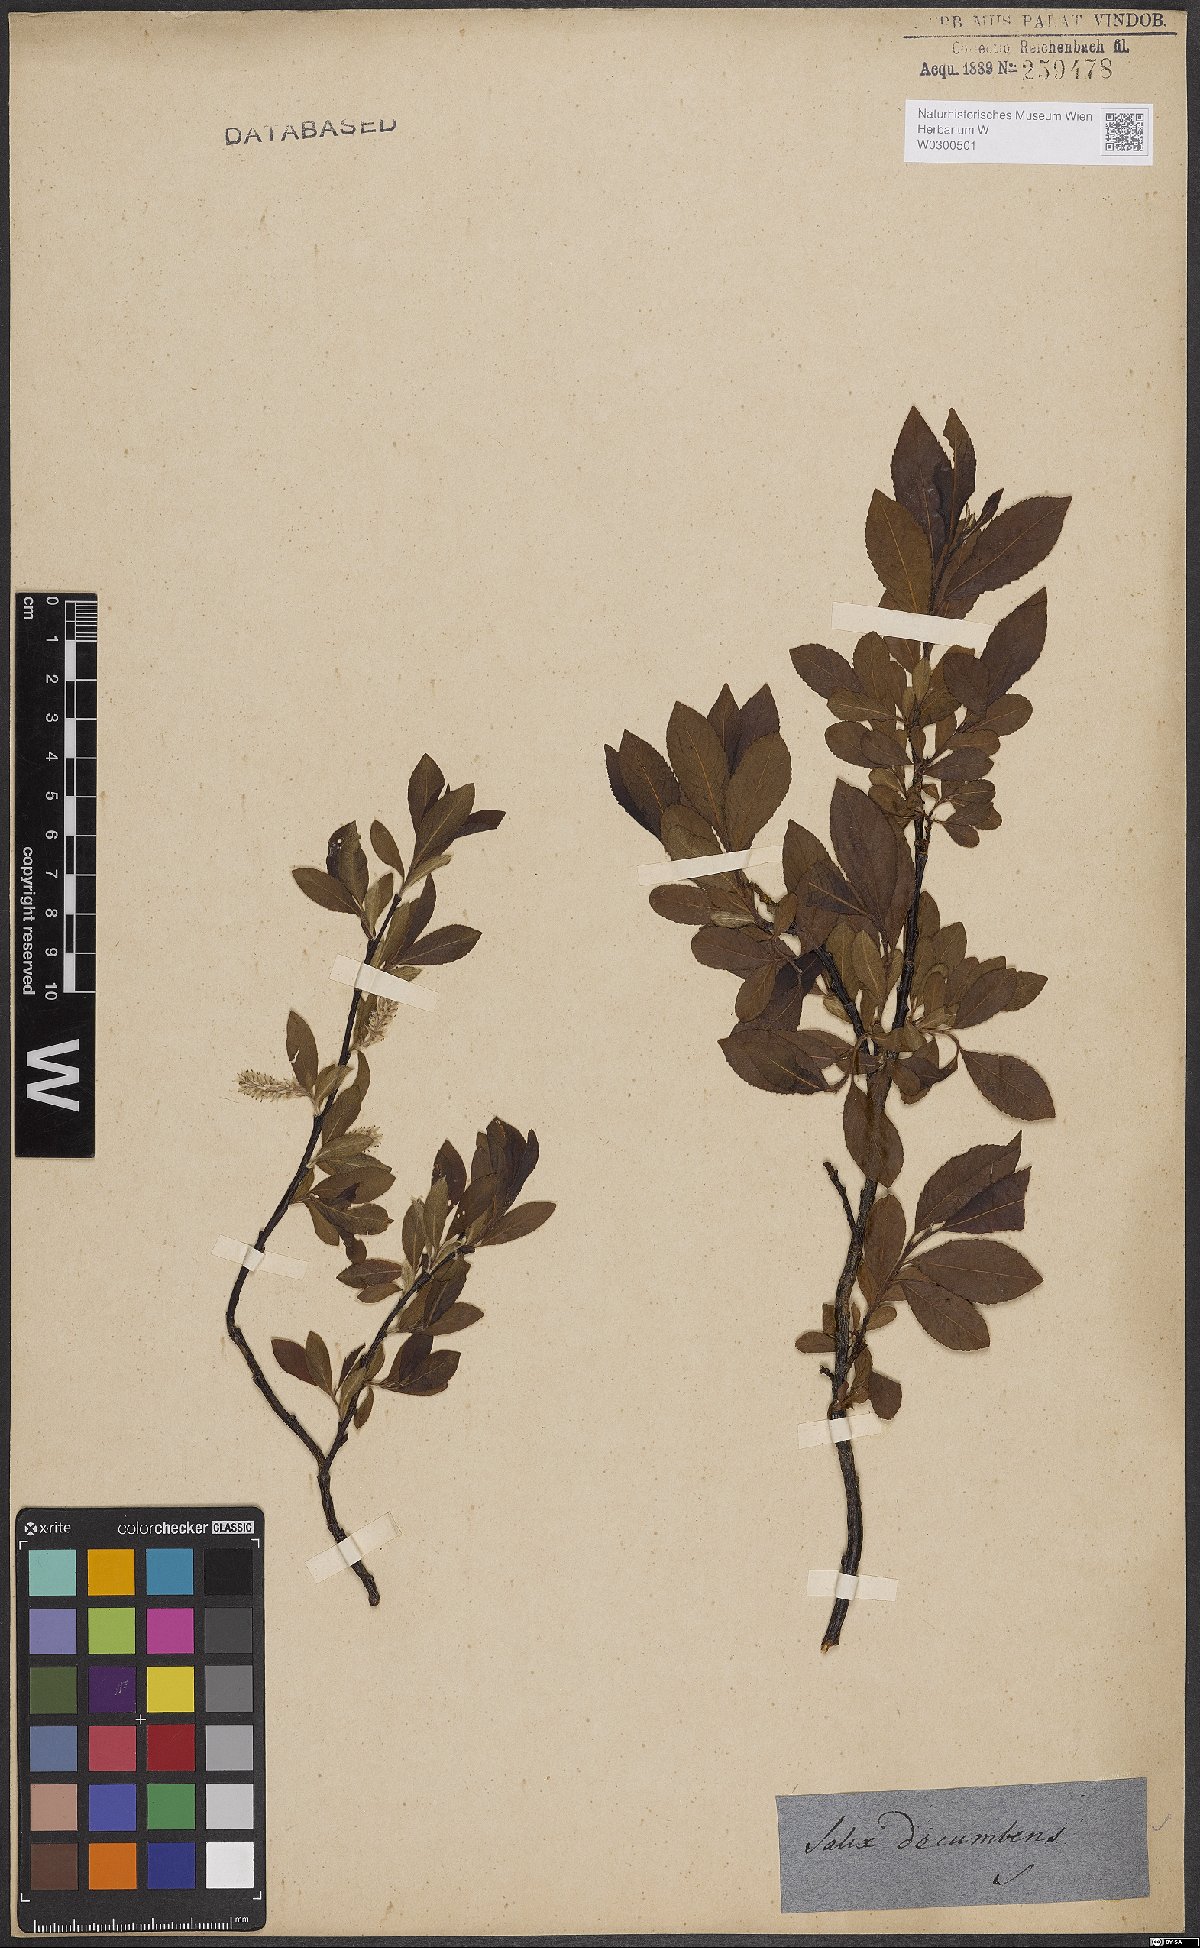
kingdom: Plantae
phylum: Tracheophyta
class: Magnoliopsida
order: Malpighiales
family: Salicaceae
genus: Salix
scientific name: Salix repens
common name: Creeping willow
